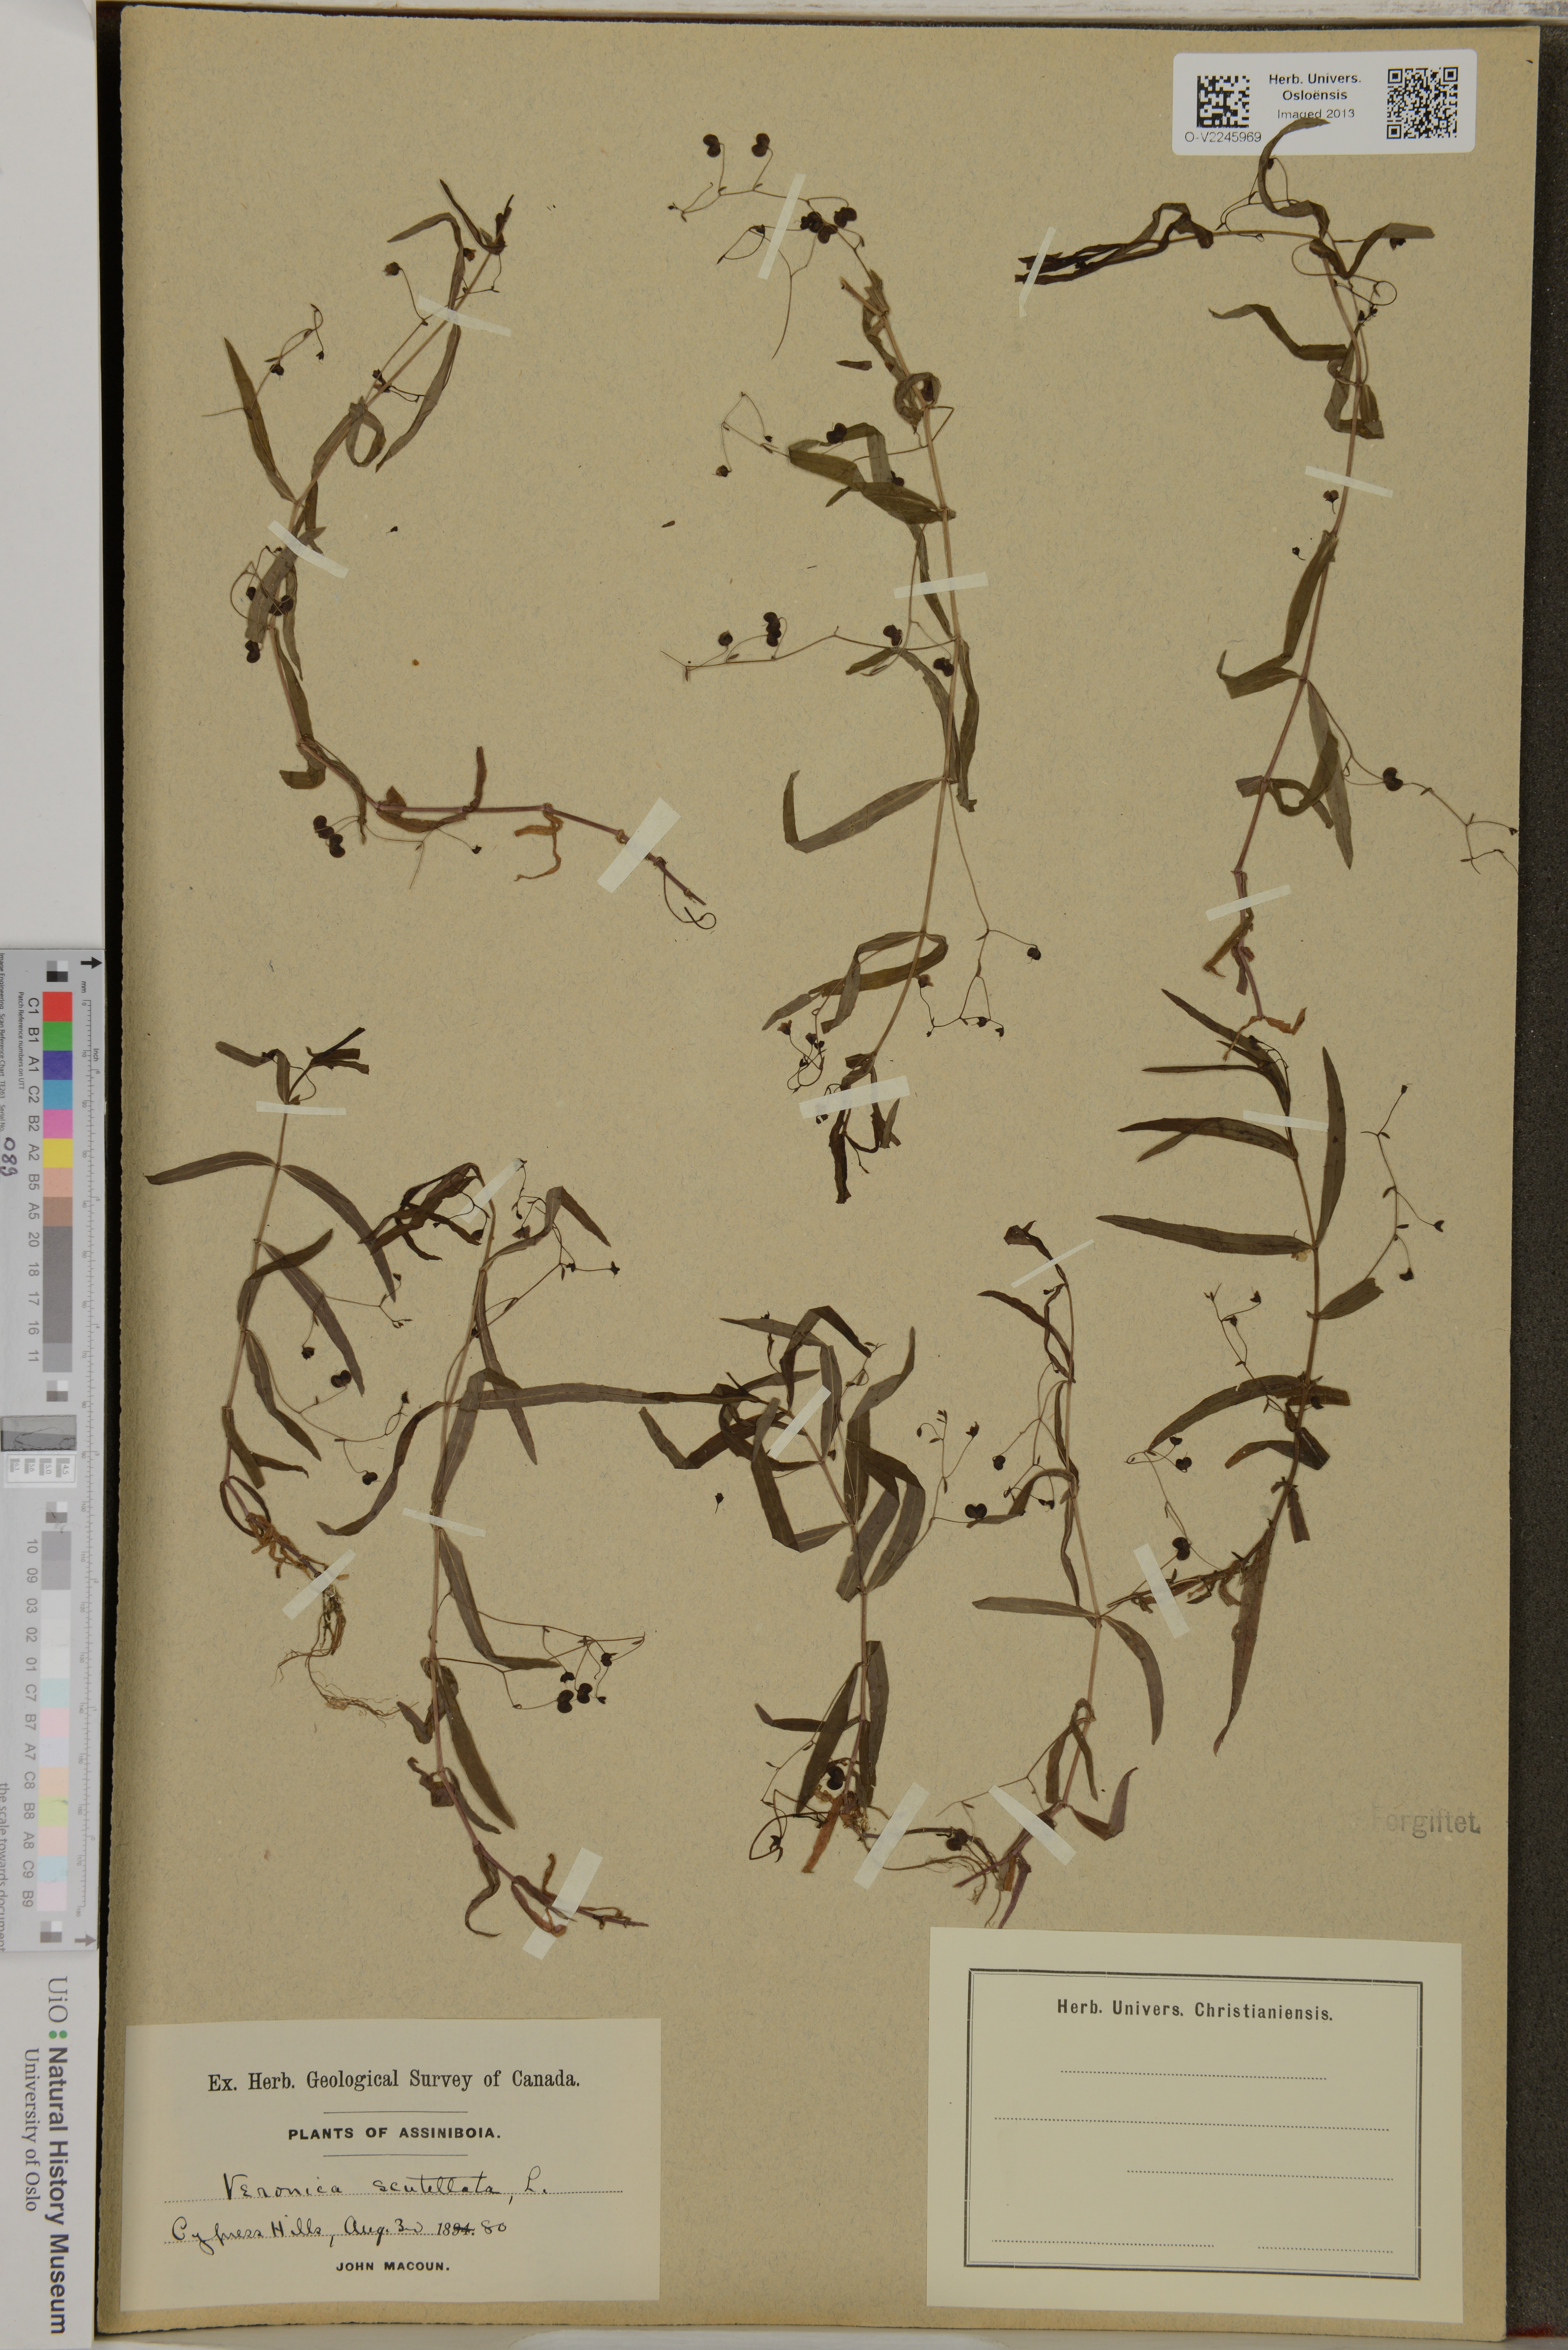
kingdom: Plantae
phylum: Tracheophyta
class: Magnoliopsida
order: Lamiales
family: Plantaginaceae
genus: Veronica
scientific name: Veronica scutellata
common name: Marsh speedwell
